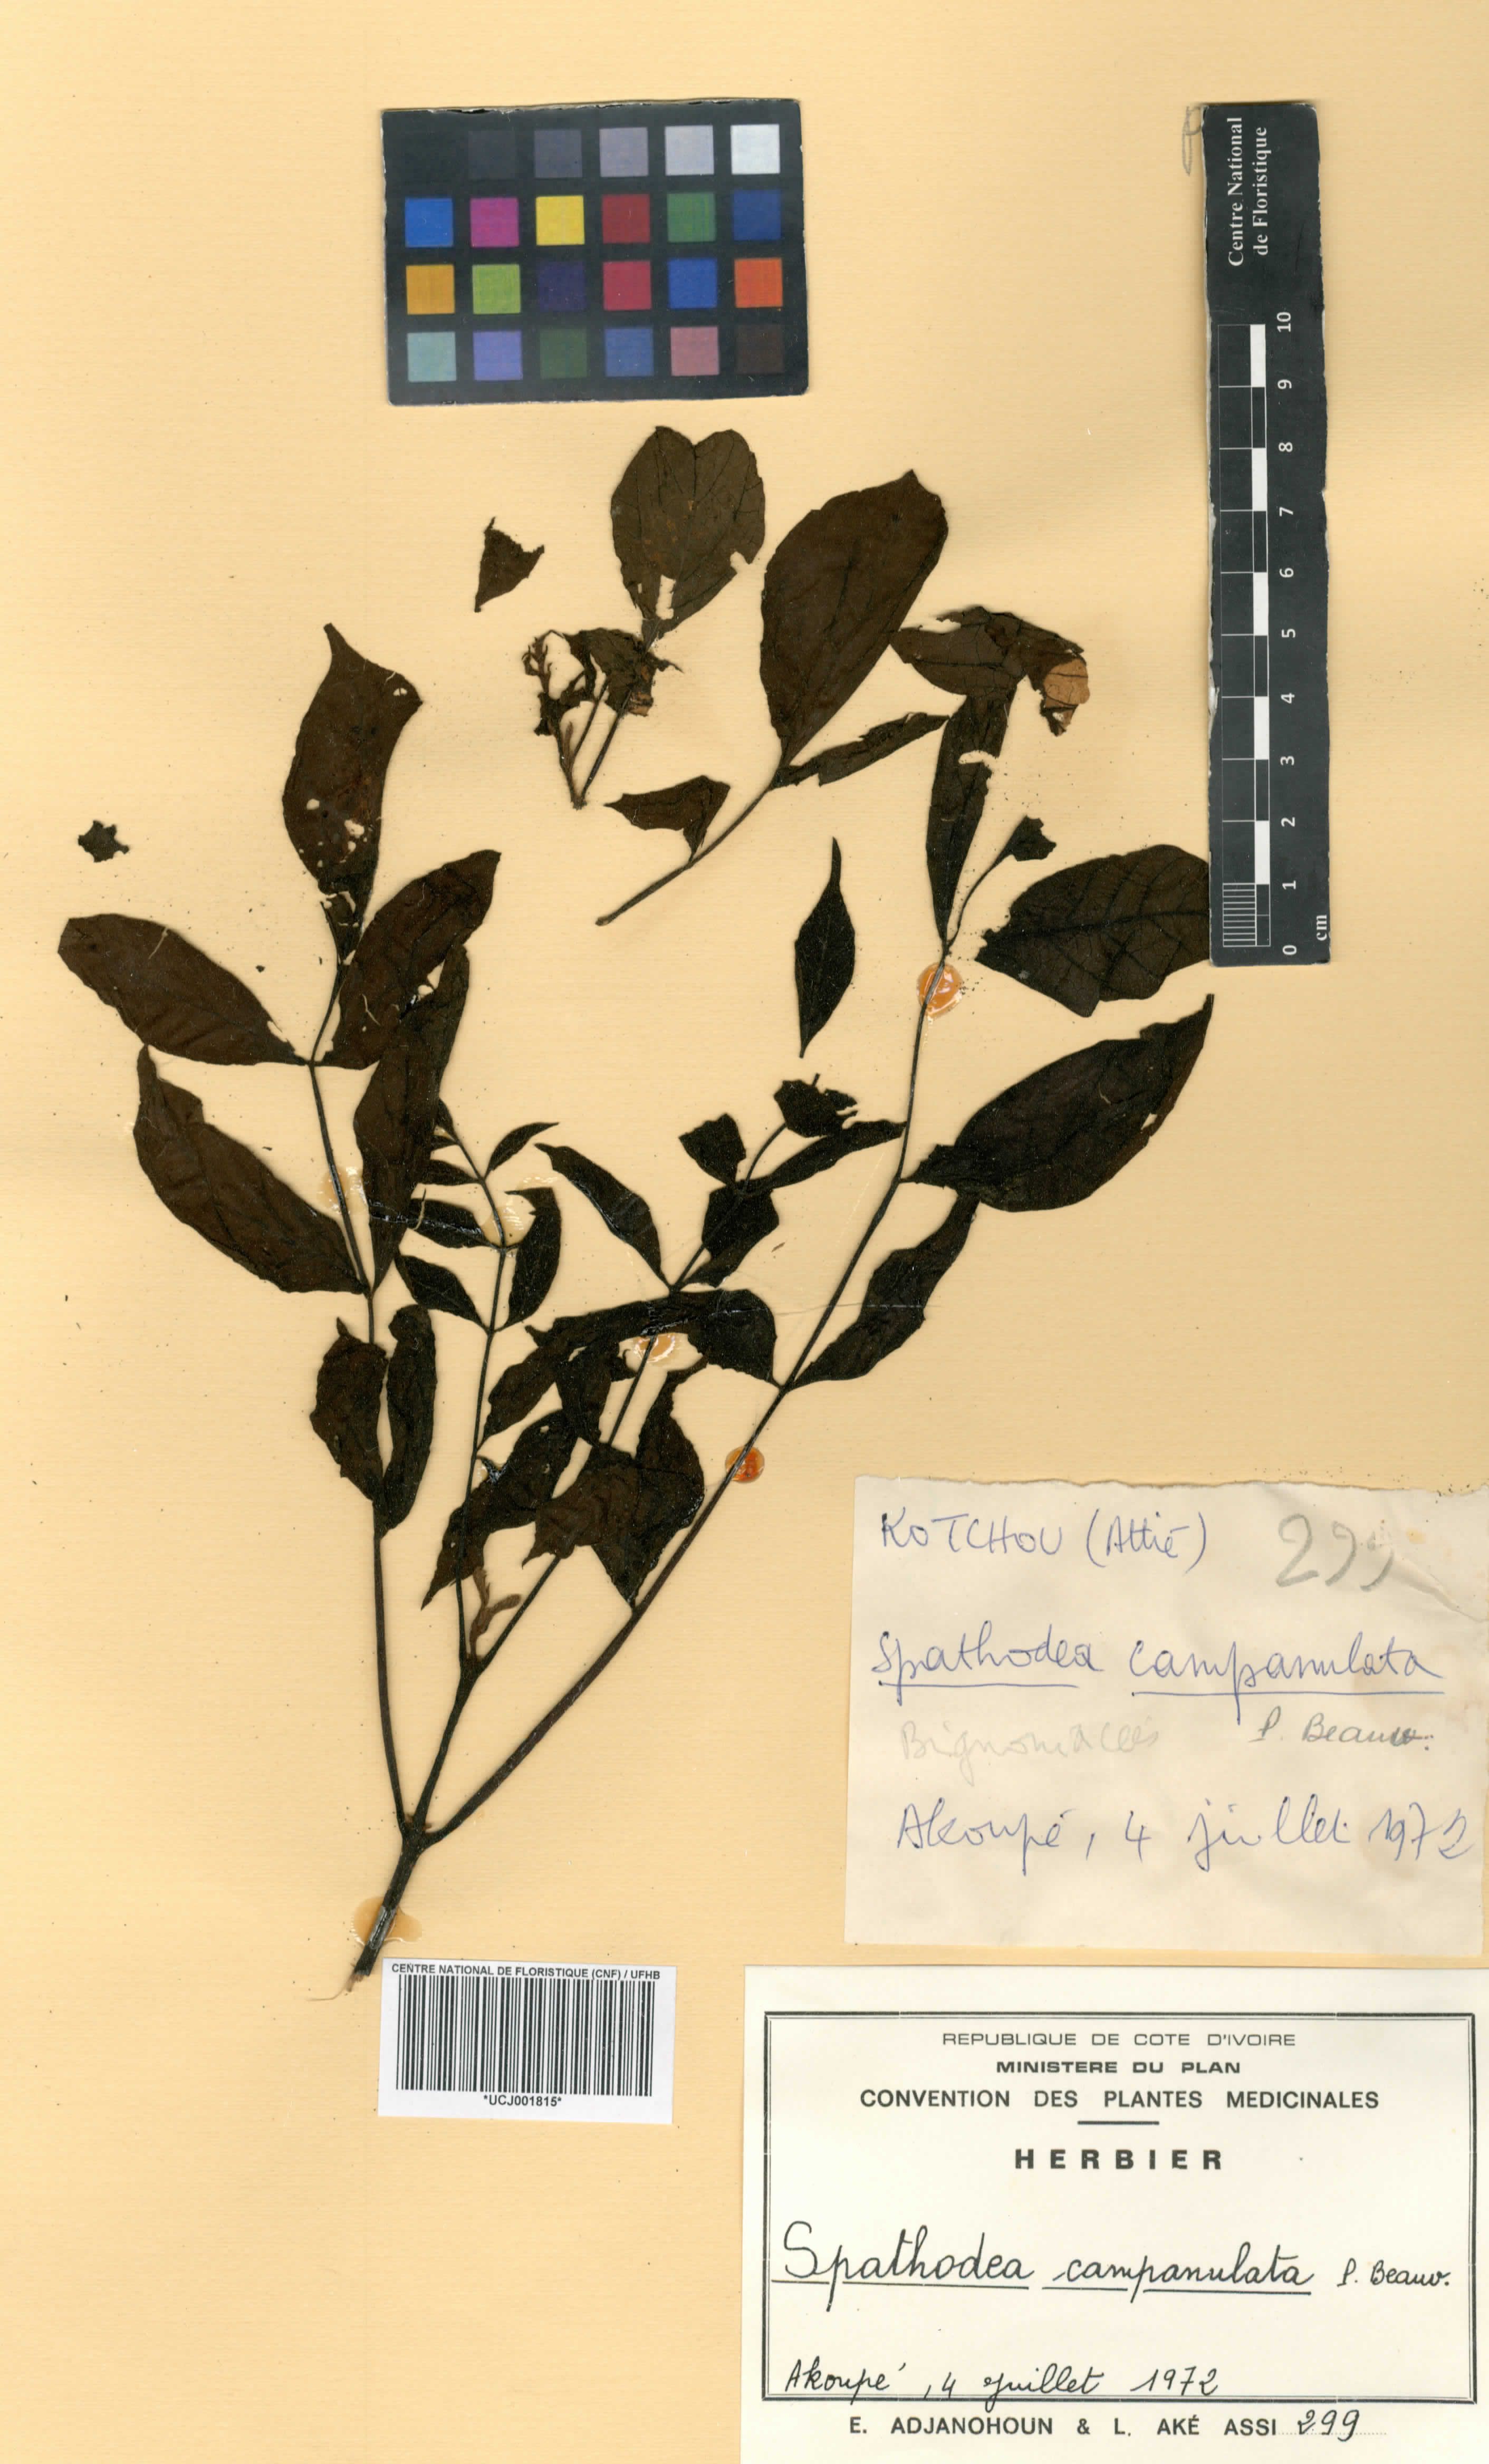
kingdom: Plantae
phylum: Tracheophyta
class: Magnoliopsida
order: Lamiales
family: Bignoniaceae
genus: Spathodea
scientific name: Spathodea campanulata
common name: African tuliptree
